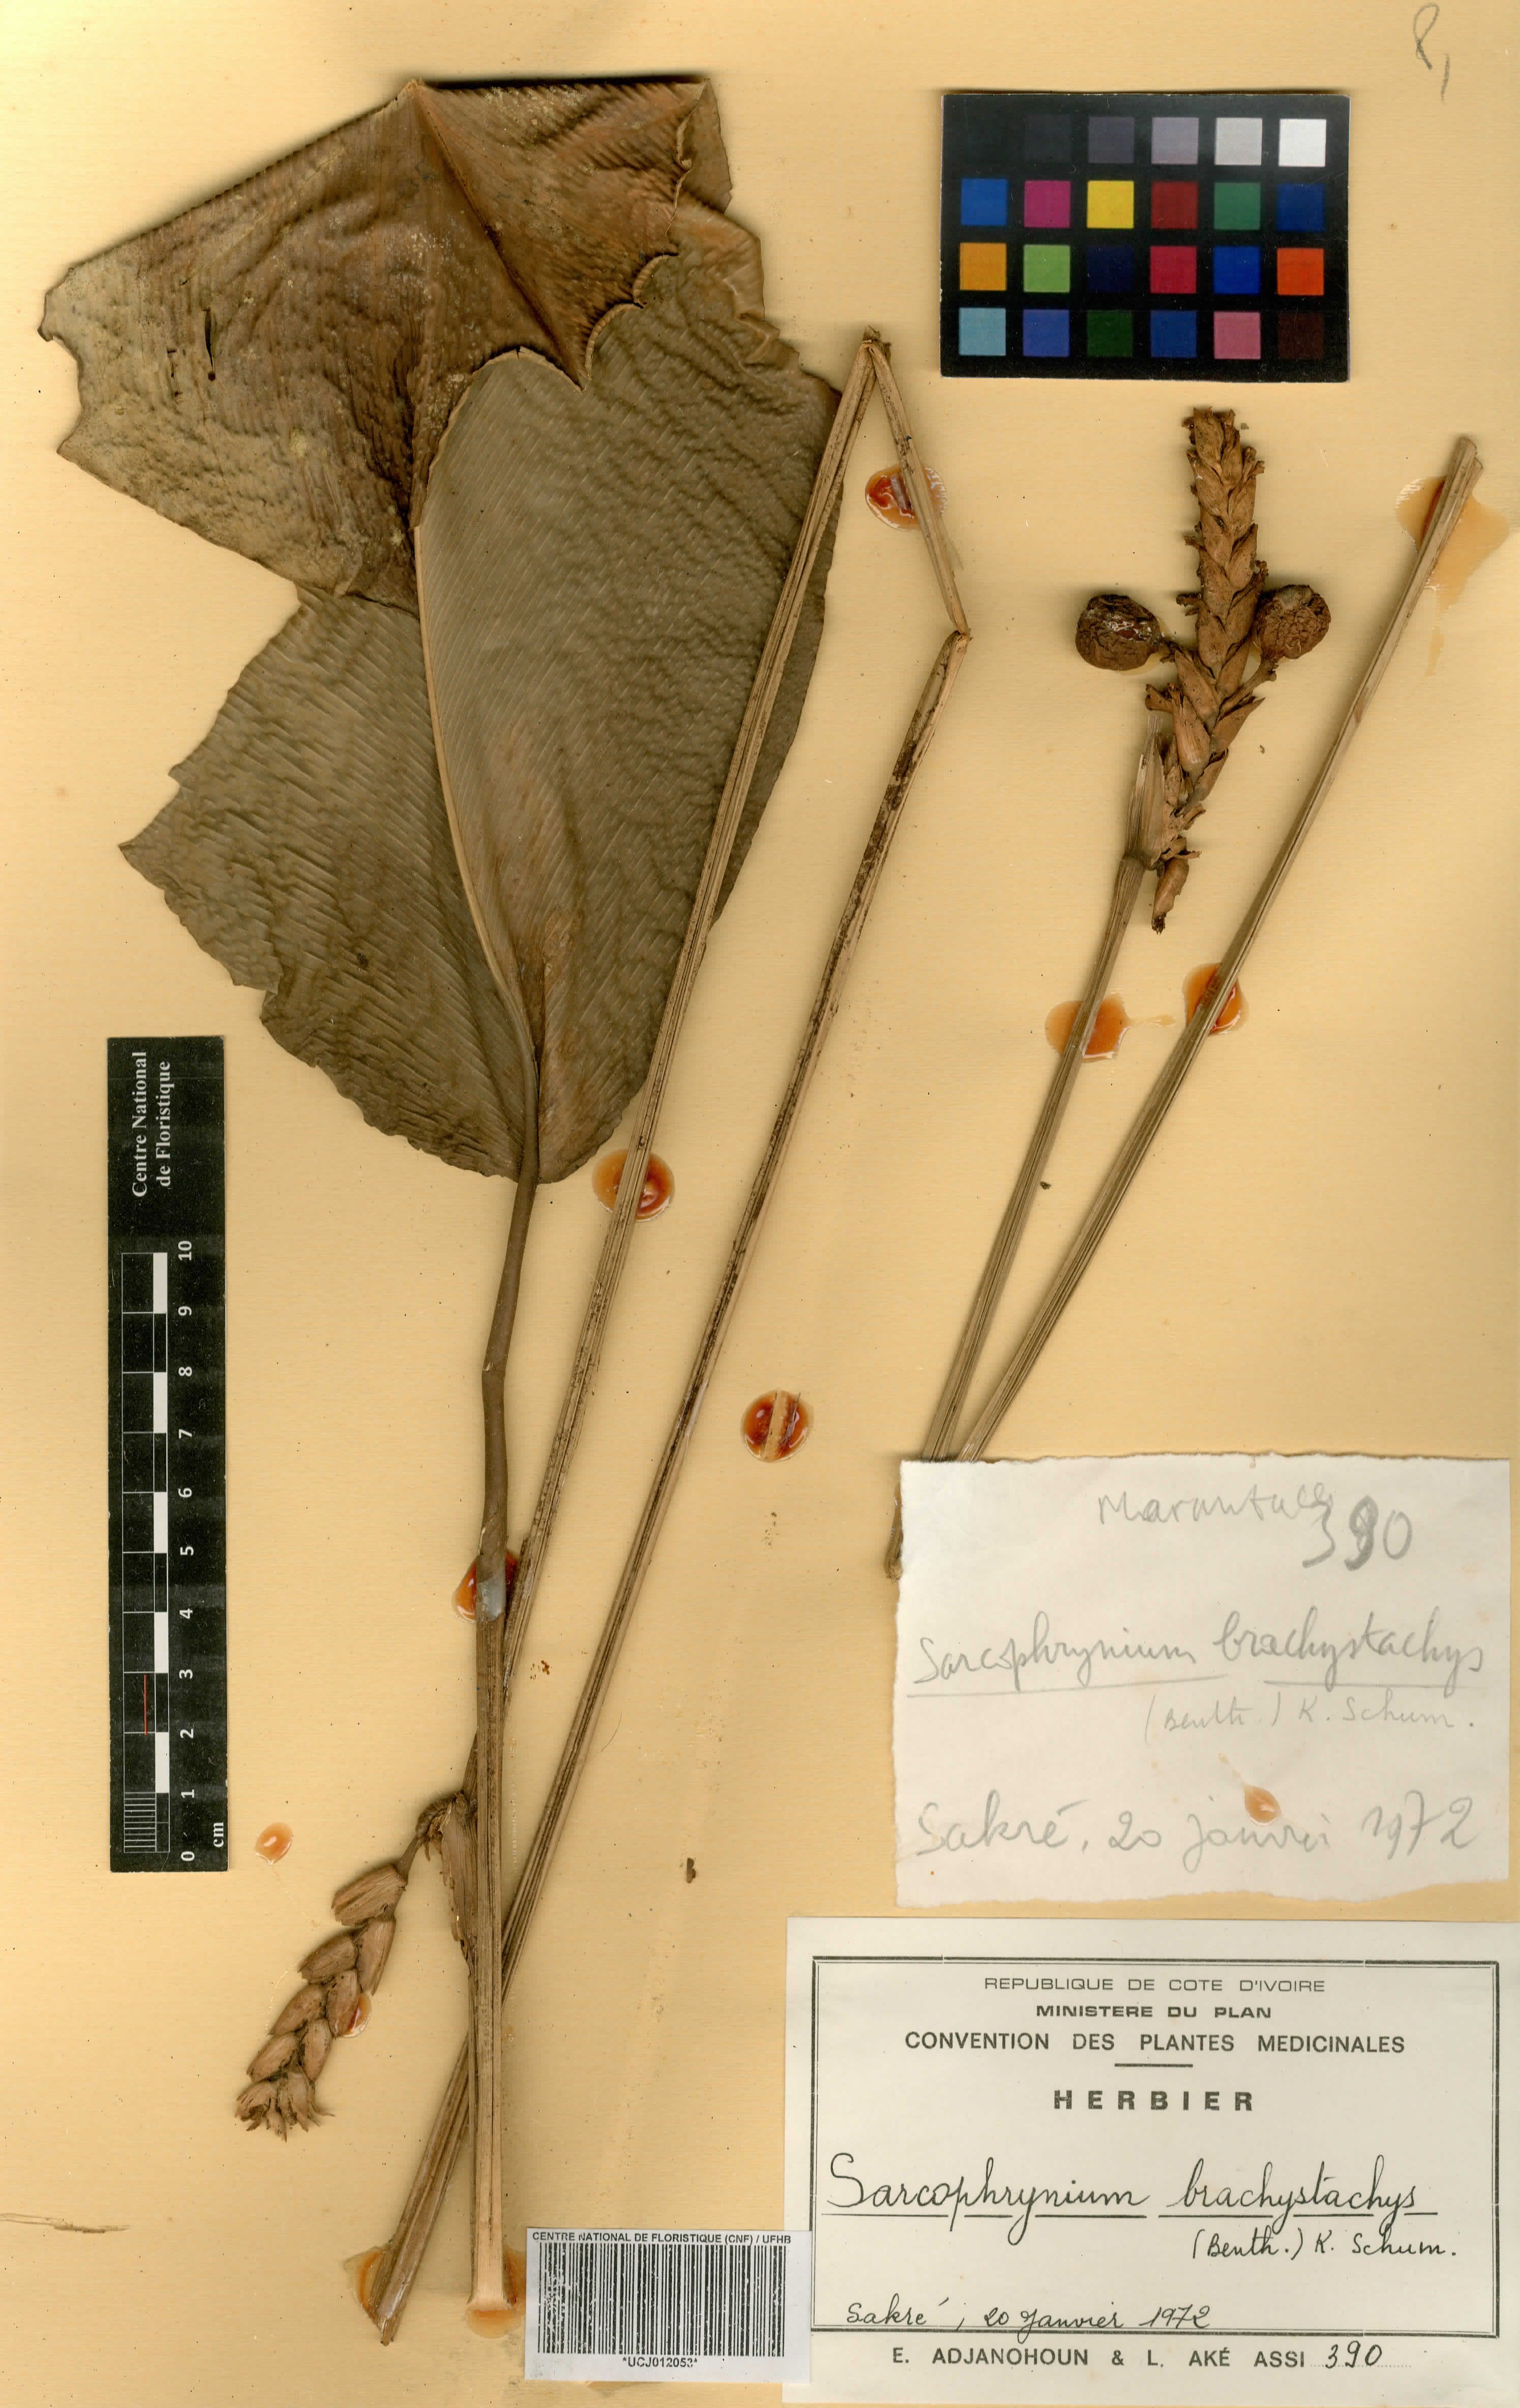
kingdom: Plantae
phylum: Tracheophyta
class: Liliopsida
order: Zingiberales
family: Marantaceae
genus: Sarcophrynium
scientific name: Sarcophrynium brachystachyum
